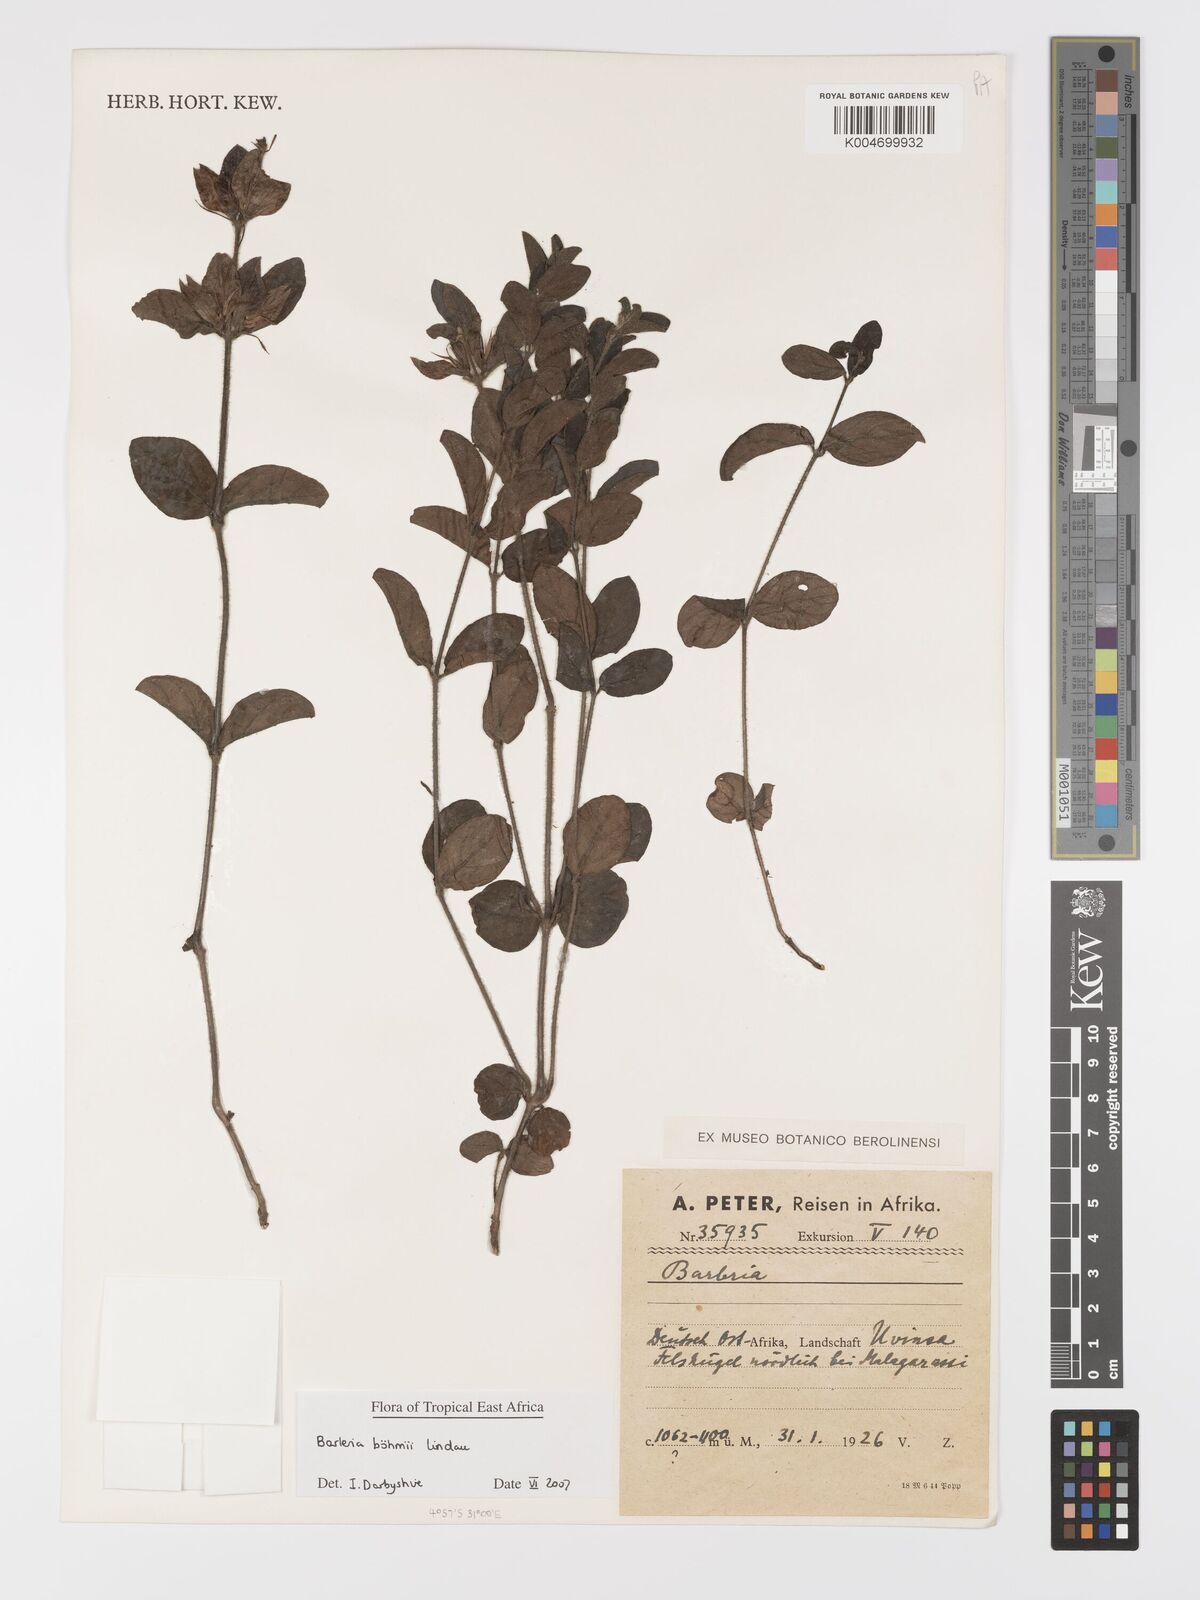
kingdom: Plantae
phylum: Tracheophyta
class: Magnoliopsida
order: Lamiales
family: Acanthaceae
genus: Barleria
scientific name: Barleria boehmii
